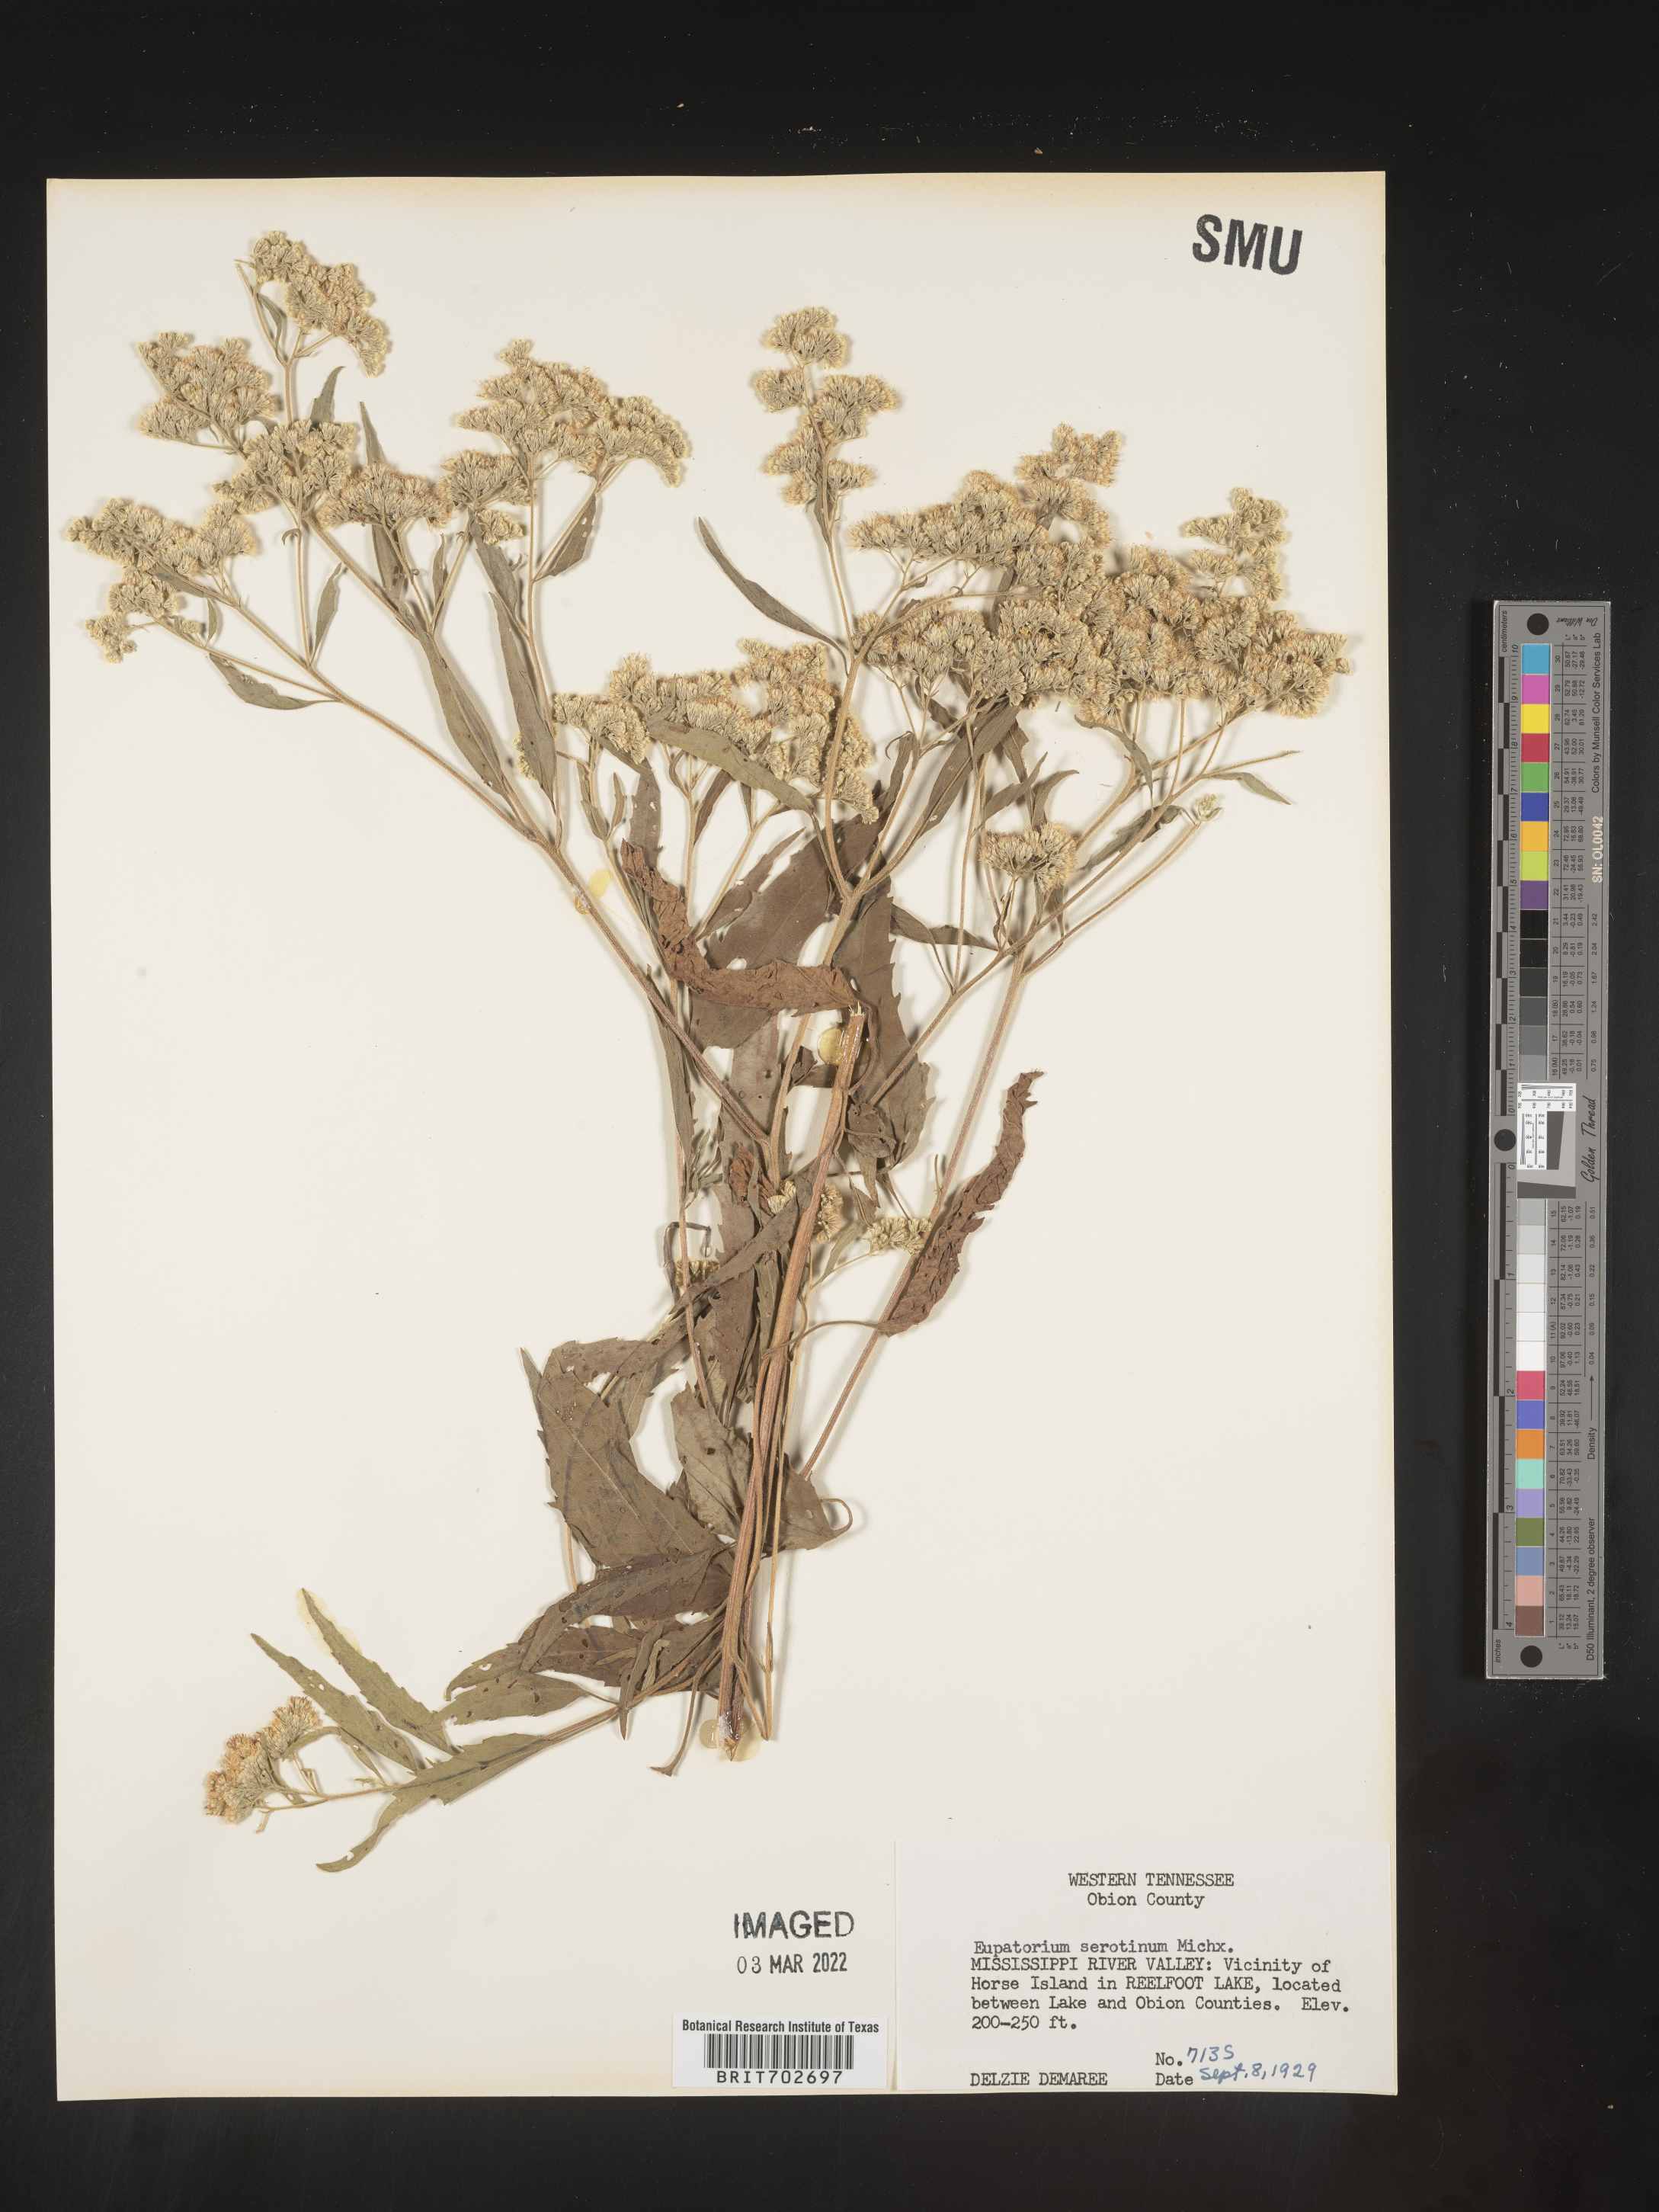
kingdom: Plantae
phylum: Tracheophyta
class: Magnoliopsida
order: Asterales
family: Asteraceae
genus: Eupatorium
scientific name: Eupatorium serotinum
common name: Late boneset
